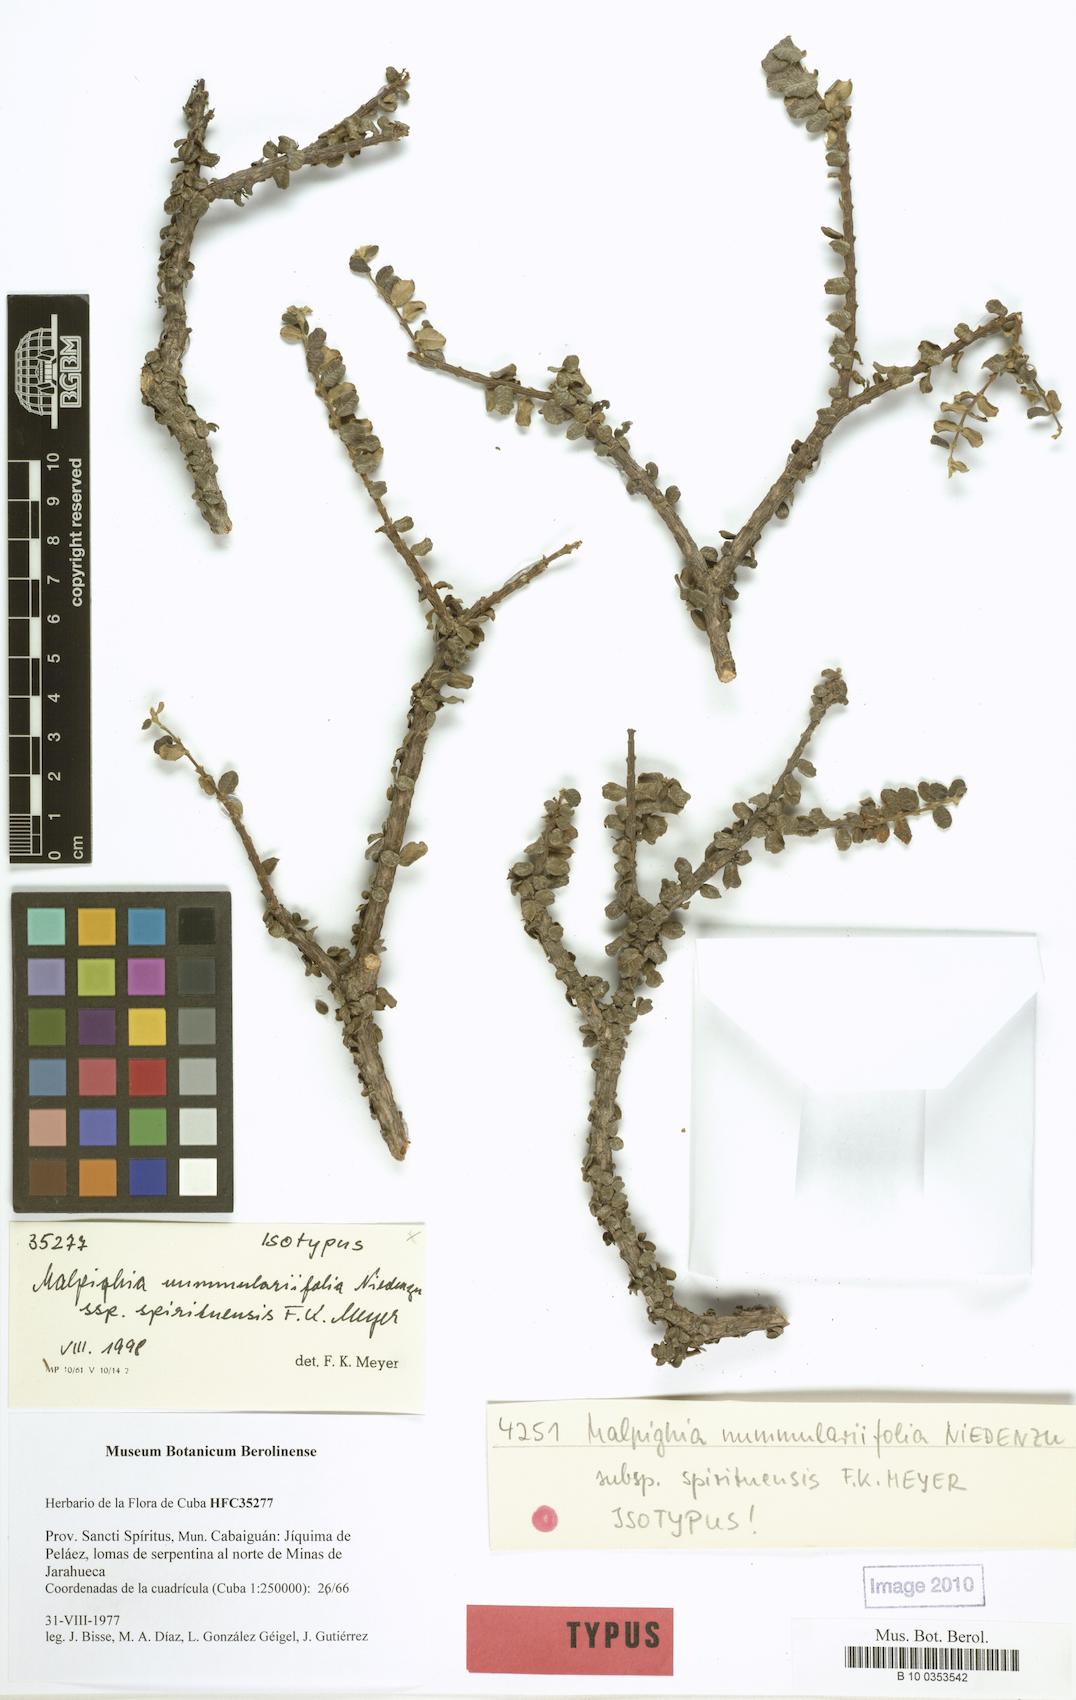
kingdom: Plantae
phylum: Tracheophyta
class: Magnoliopsida
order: Malpighiales
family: Malpighiaceae
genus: Malpighia
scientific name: Malpighia nummulariifolia
